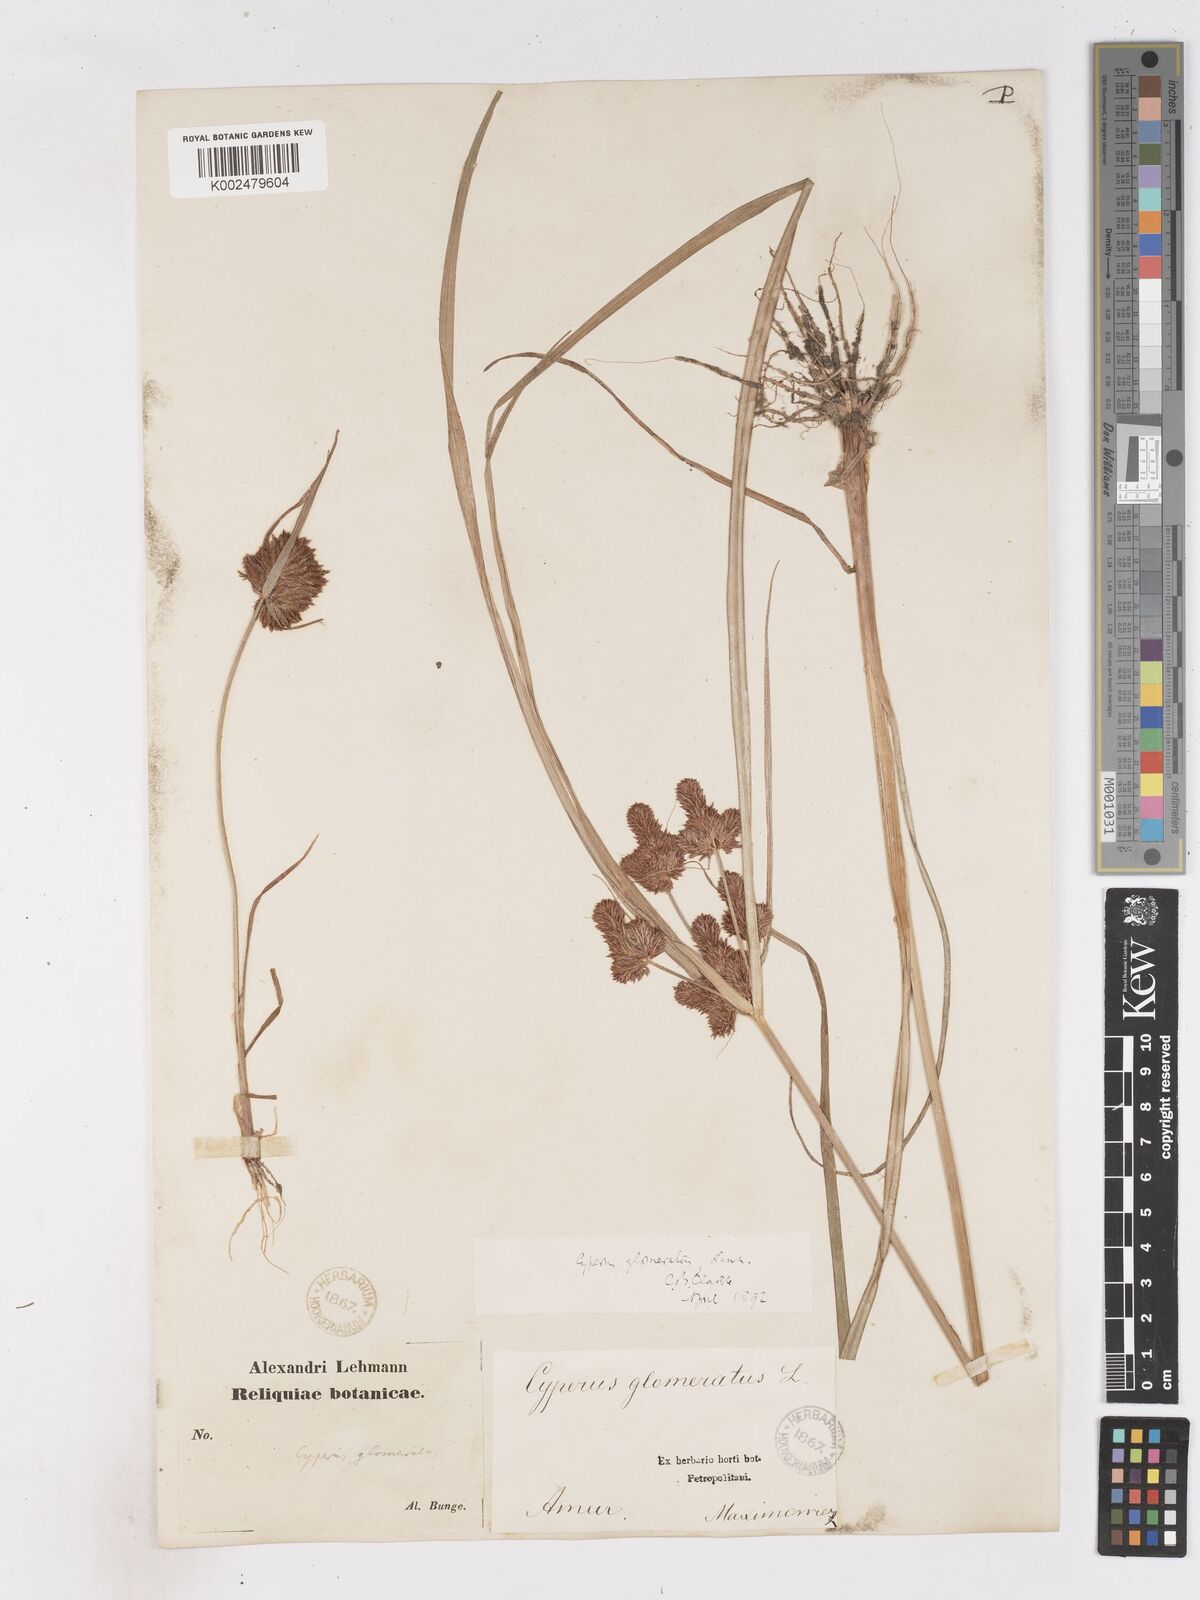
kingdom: Plantae
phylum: Tracheophyta
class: Liliopsida
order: Poales
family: Cyperaceae
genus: Cyperus
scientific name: Cyperus glomeratus
